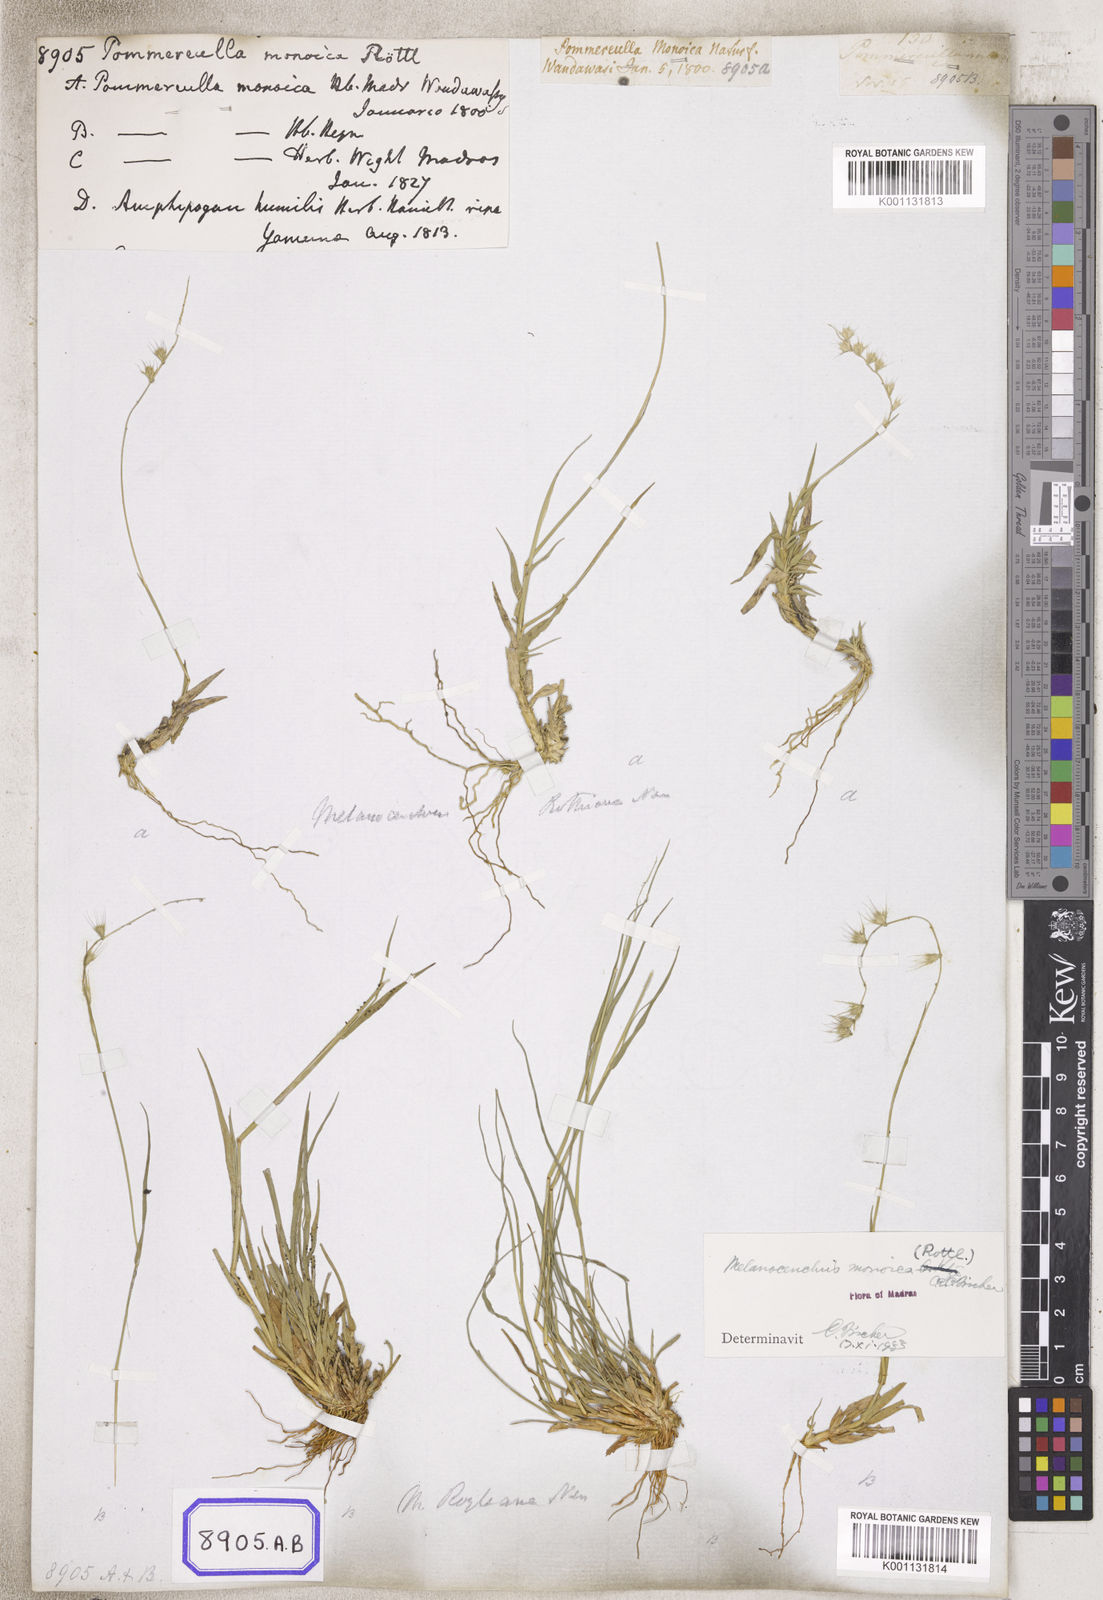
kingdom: Plantae
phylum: Tracheophyta
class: Liliopsida
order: Poales
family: Poaceae
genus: Melanocenchris
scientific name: Melanocenchris rothiana
